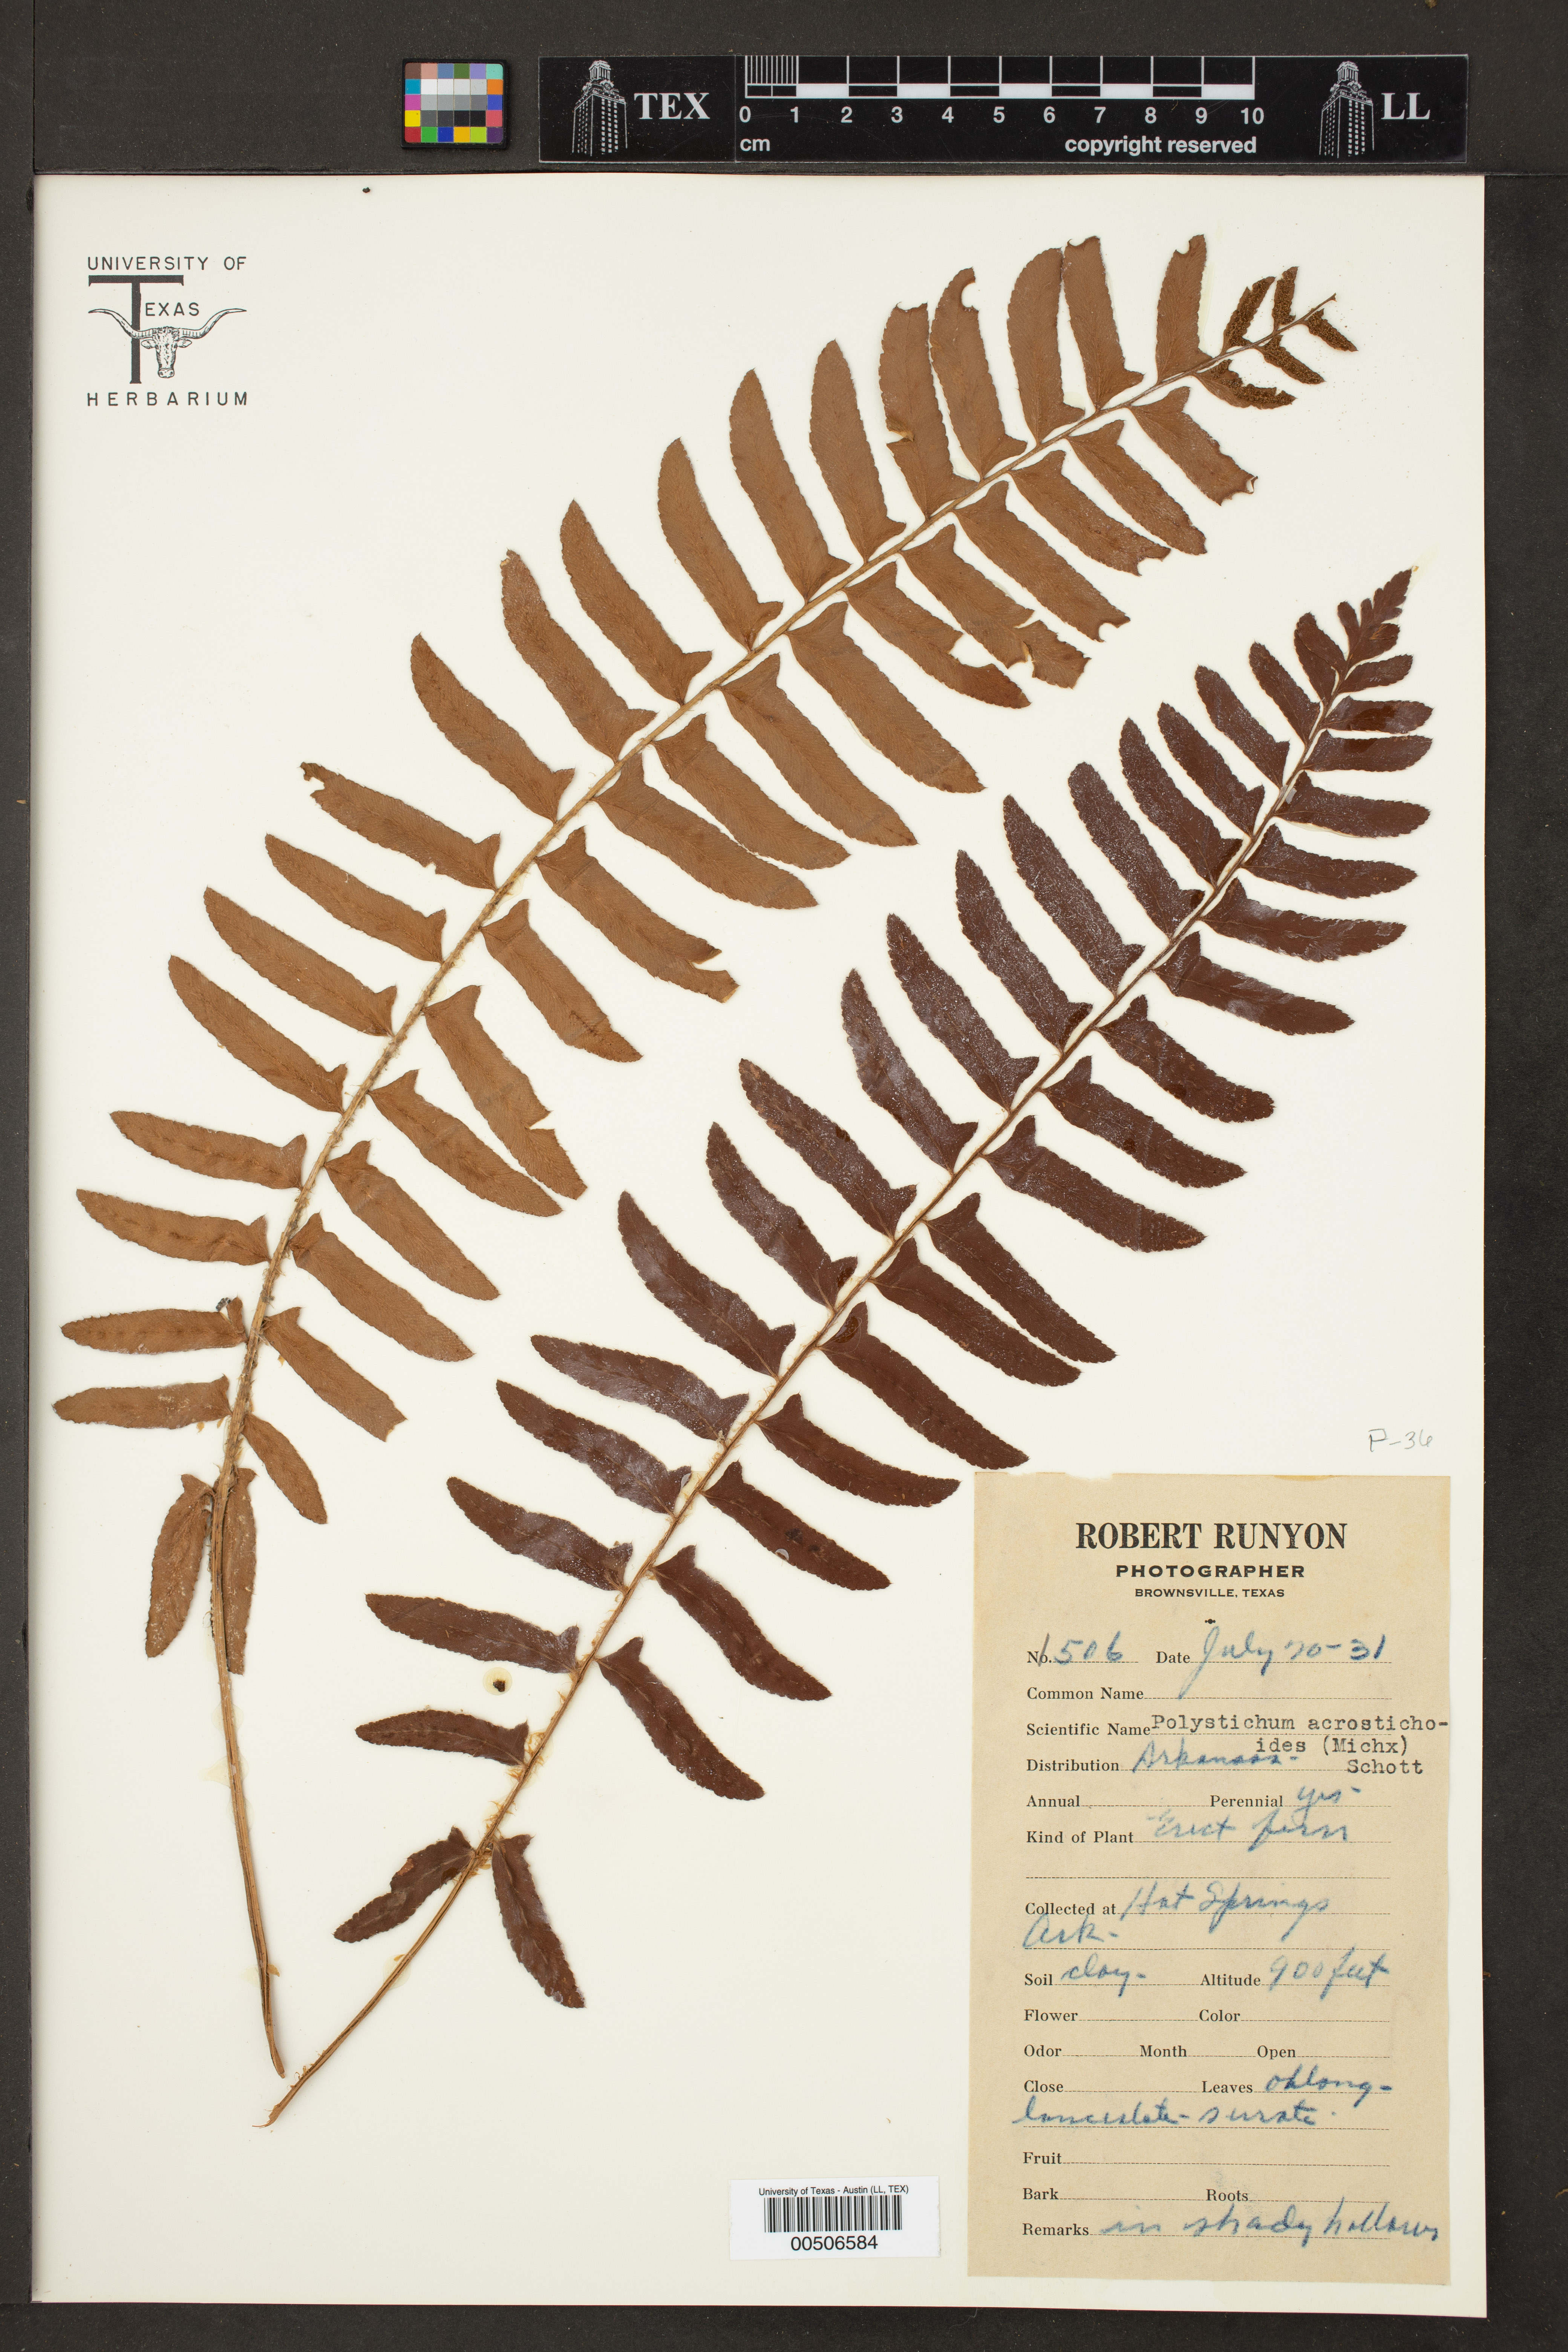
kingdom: Plantae
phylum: Tracheophyta
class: Polypodiopsida
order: Polypodiales
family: Dryopteridaceae
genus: Polystichum
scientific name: Polystichum acrostichoides
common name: Christmas fern
